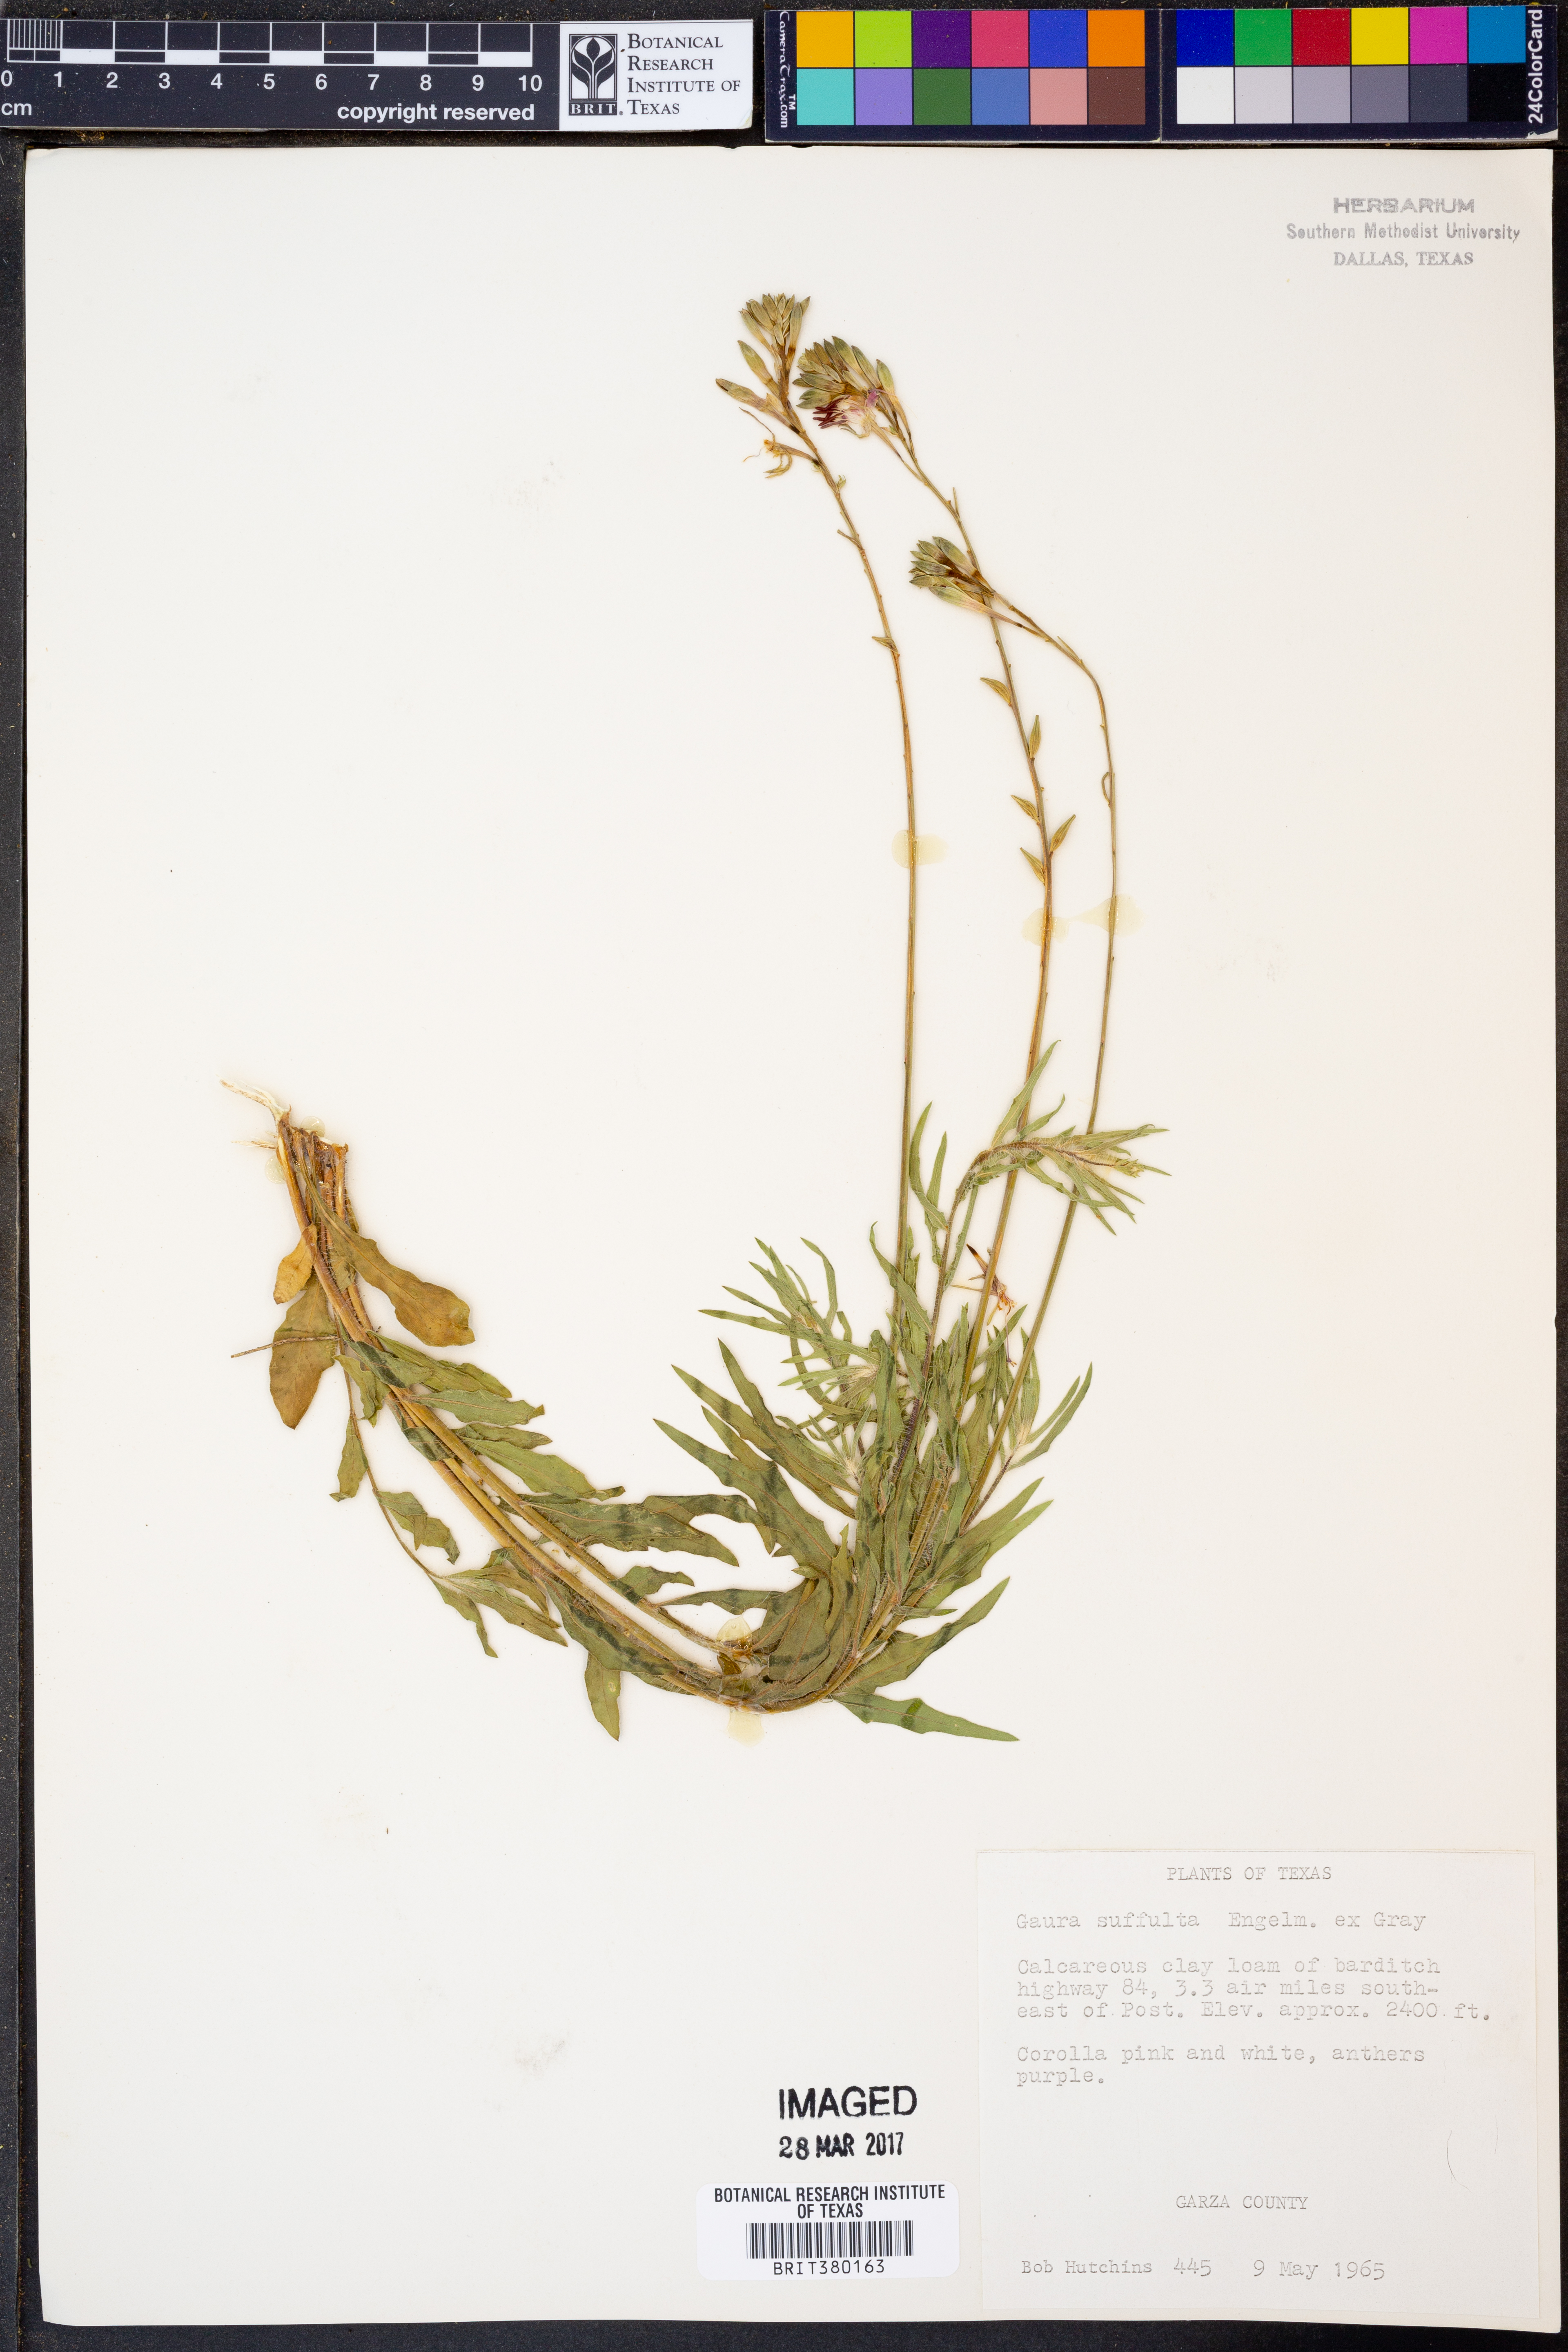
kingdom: Plantae
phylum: Tracheophyta
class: Magnoliopsida
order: Myrtales
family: Onagraceae
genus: Oenothera
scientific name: Oenothera Gaura suffulta
